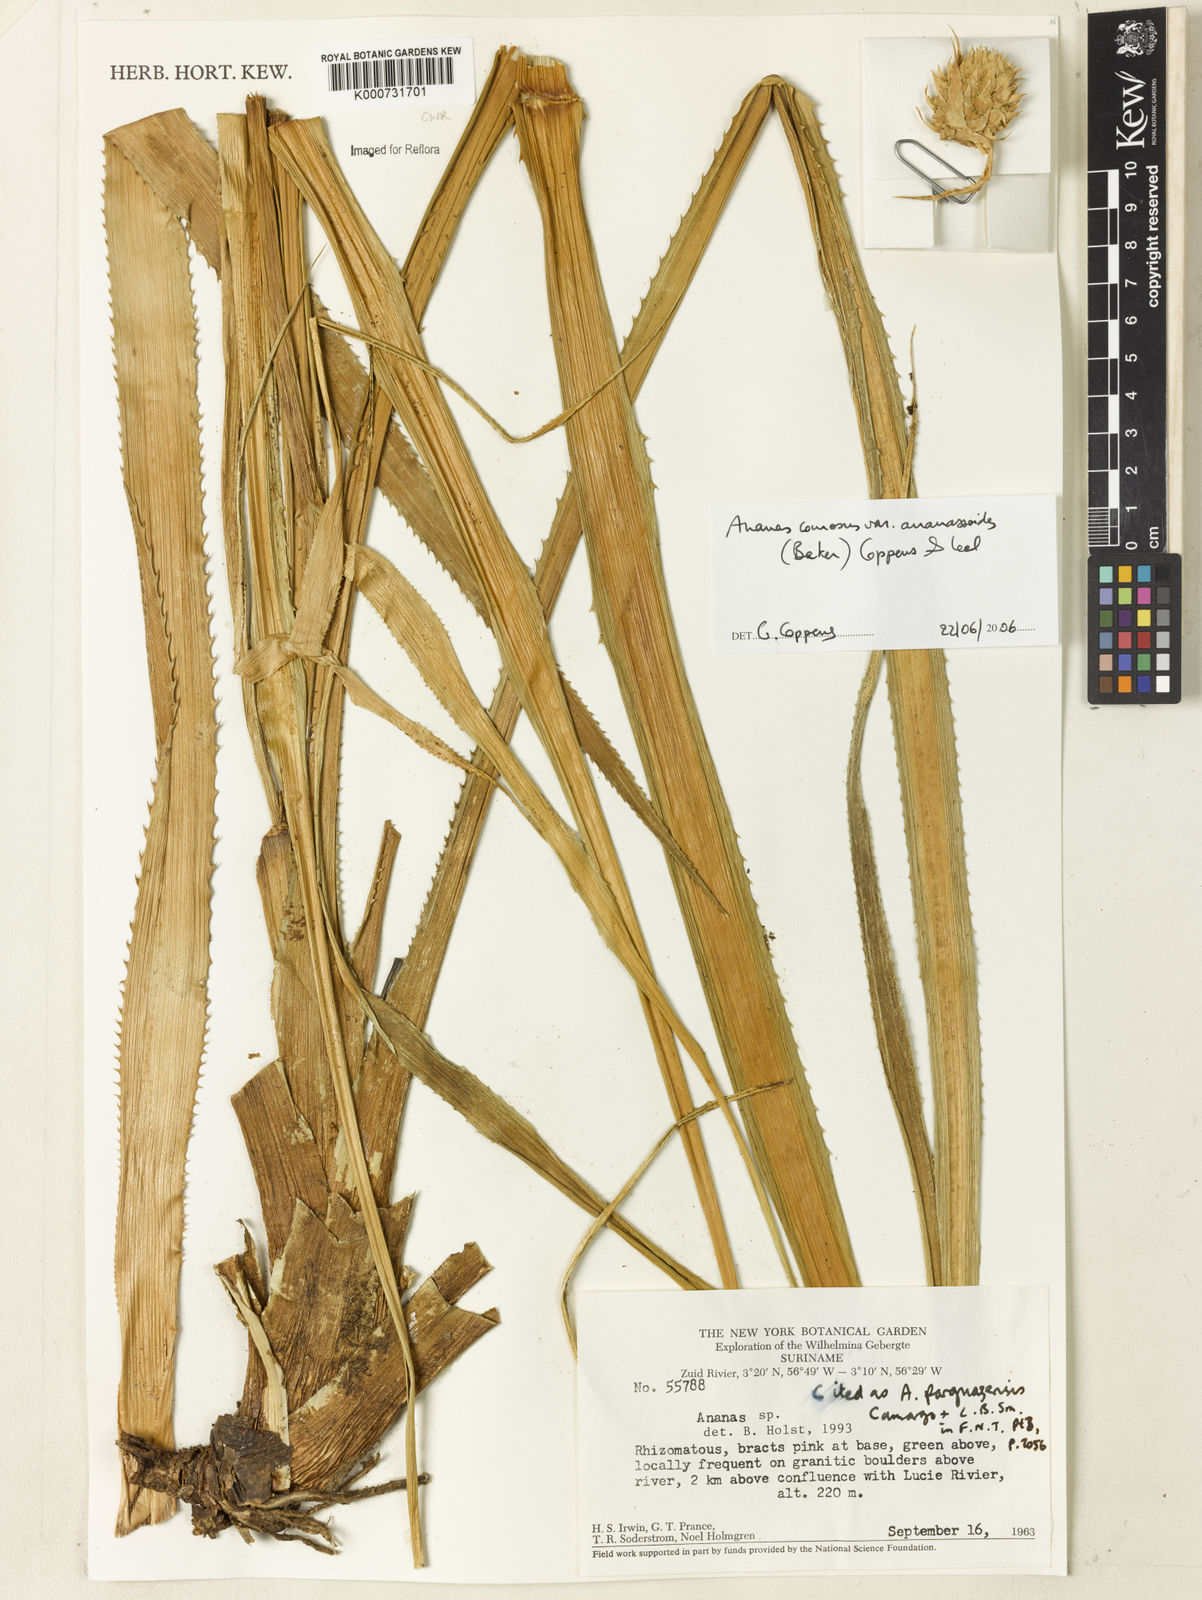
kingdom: Plantae
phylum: Tracheophyta
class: Liliopsida
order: Poales
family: Bromeliaceae
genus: Ananas
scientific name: Ananas
